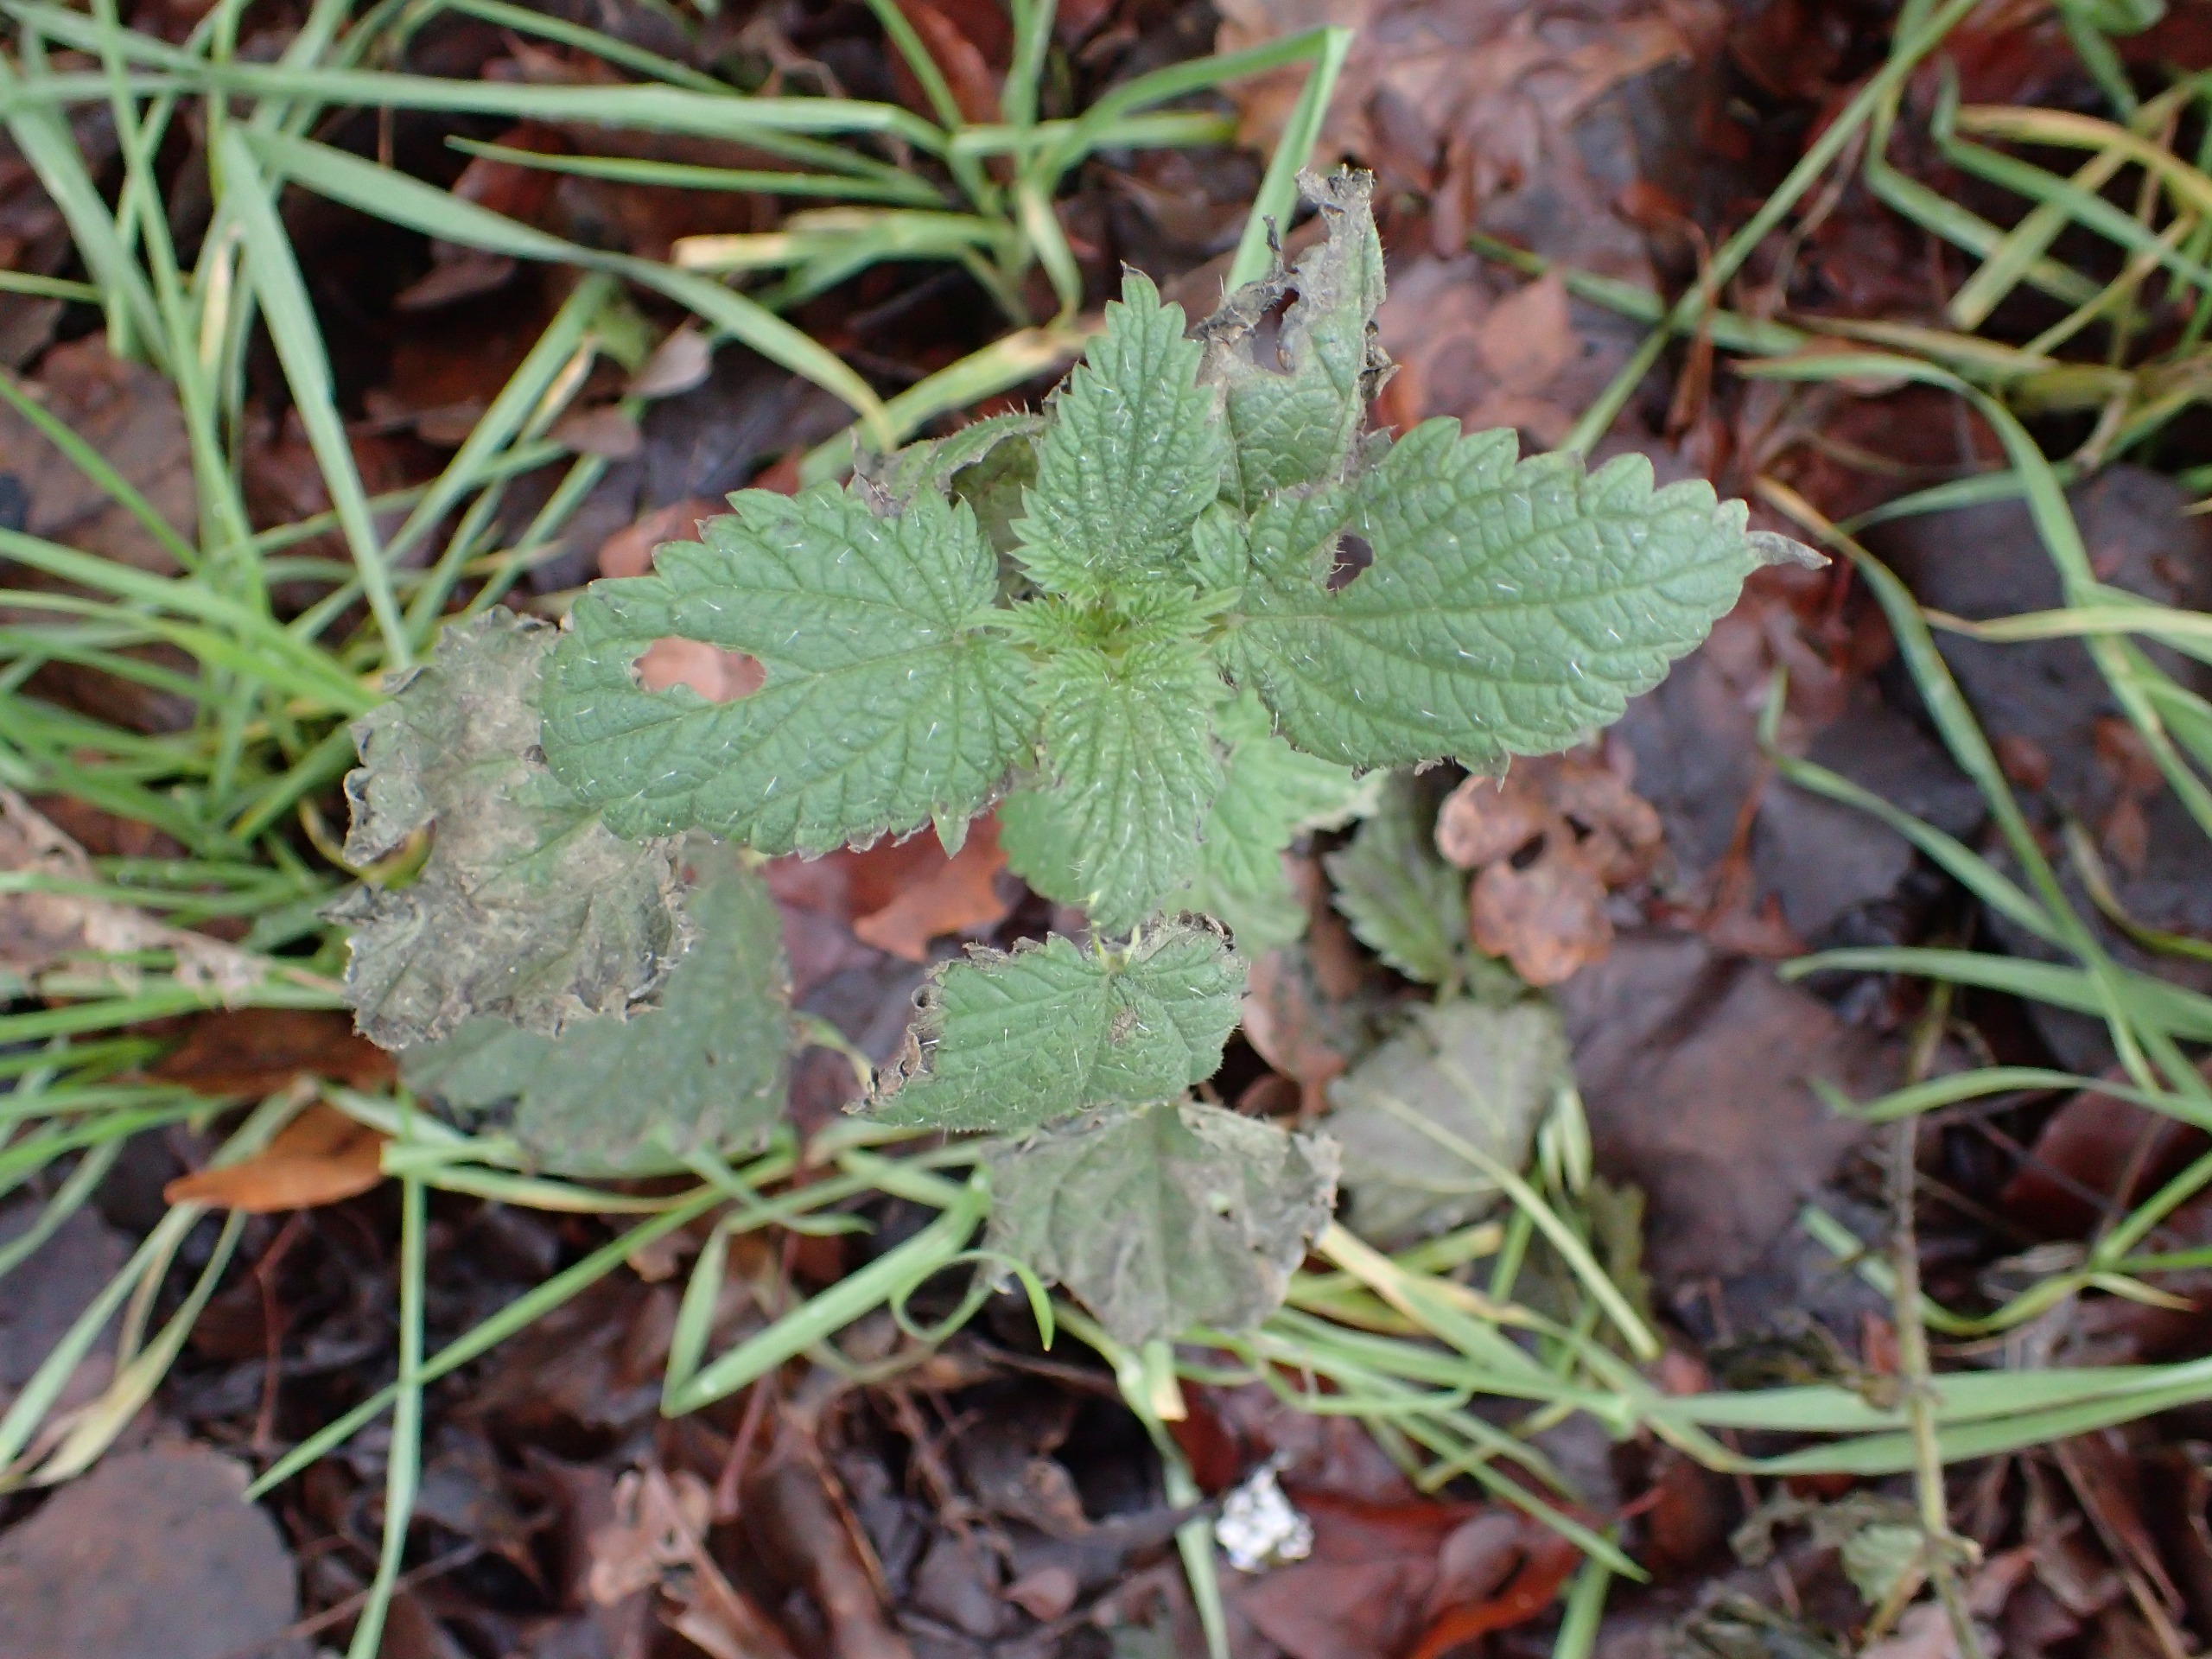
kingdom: Plantae
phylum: Tracheophyta
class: Magnoliopsida
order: Rosales
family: Urticaceae
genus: Urtica
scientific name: Urtica dioica
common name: Stor nælde
